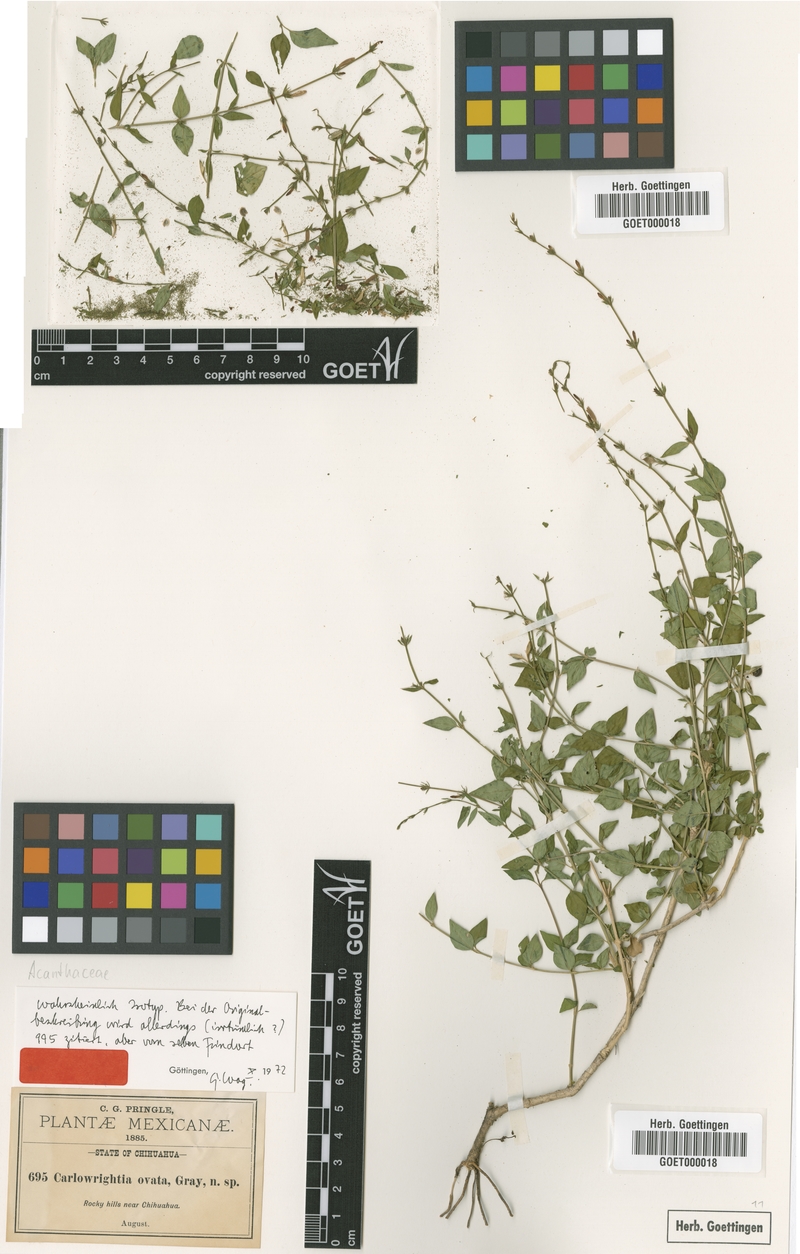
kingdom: Plantae
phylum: Tracheophyta
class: Magnoliopsida
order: Lamiales
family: Acanthaceae
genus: Carlowrightia
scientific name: Carlowrightia ovata
